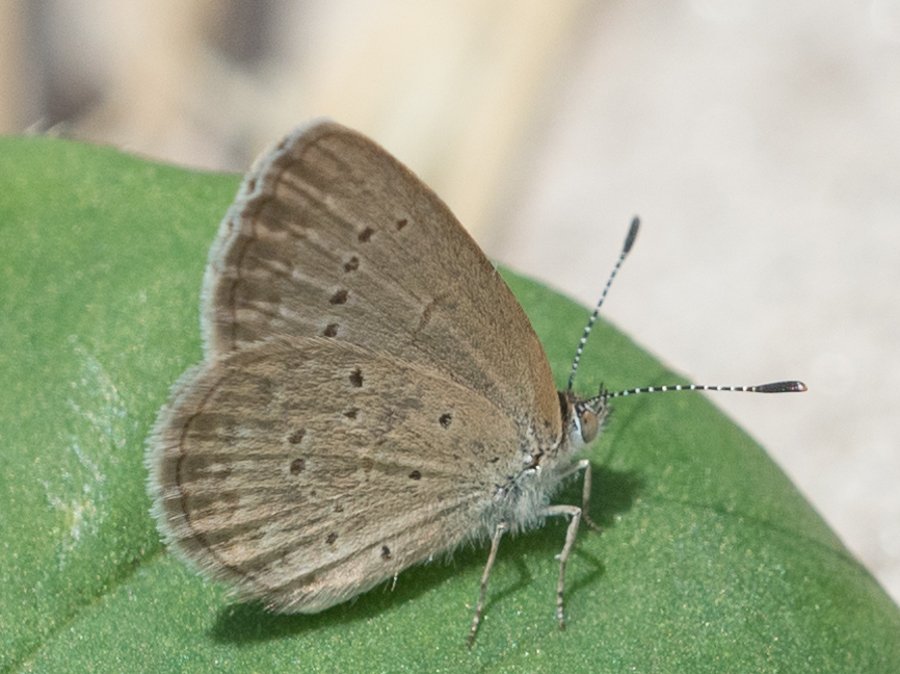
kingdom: Animalia
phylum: Arthropoda
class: Insecta
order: Lepidoptera
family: Lycaenidae
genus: Zizina
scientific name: Zizina otis
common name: Lesser Grass Blue
